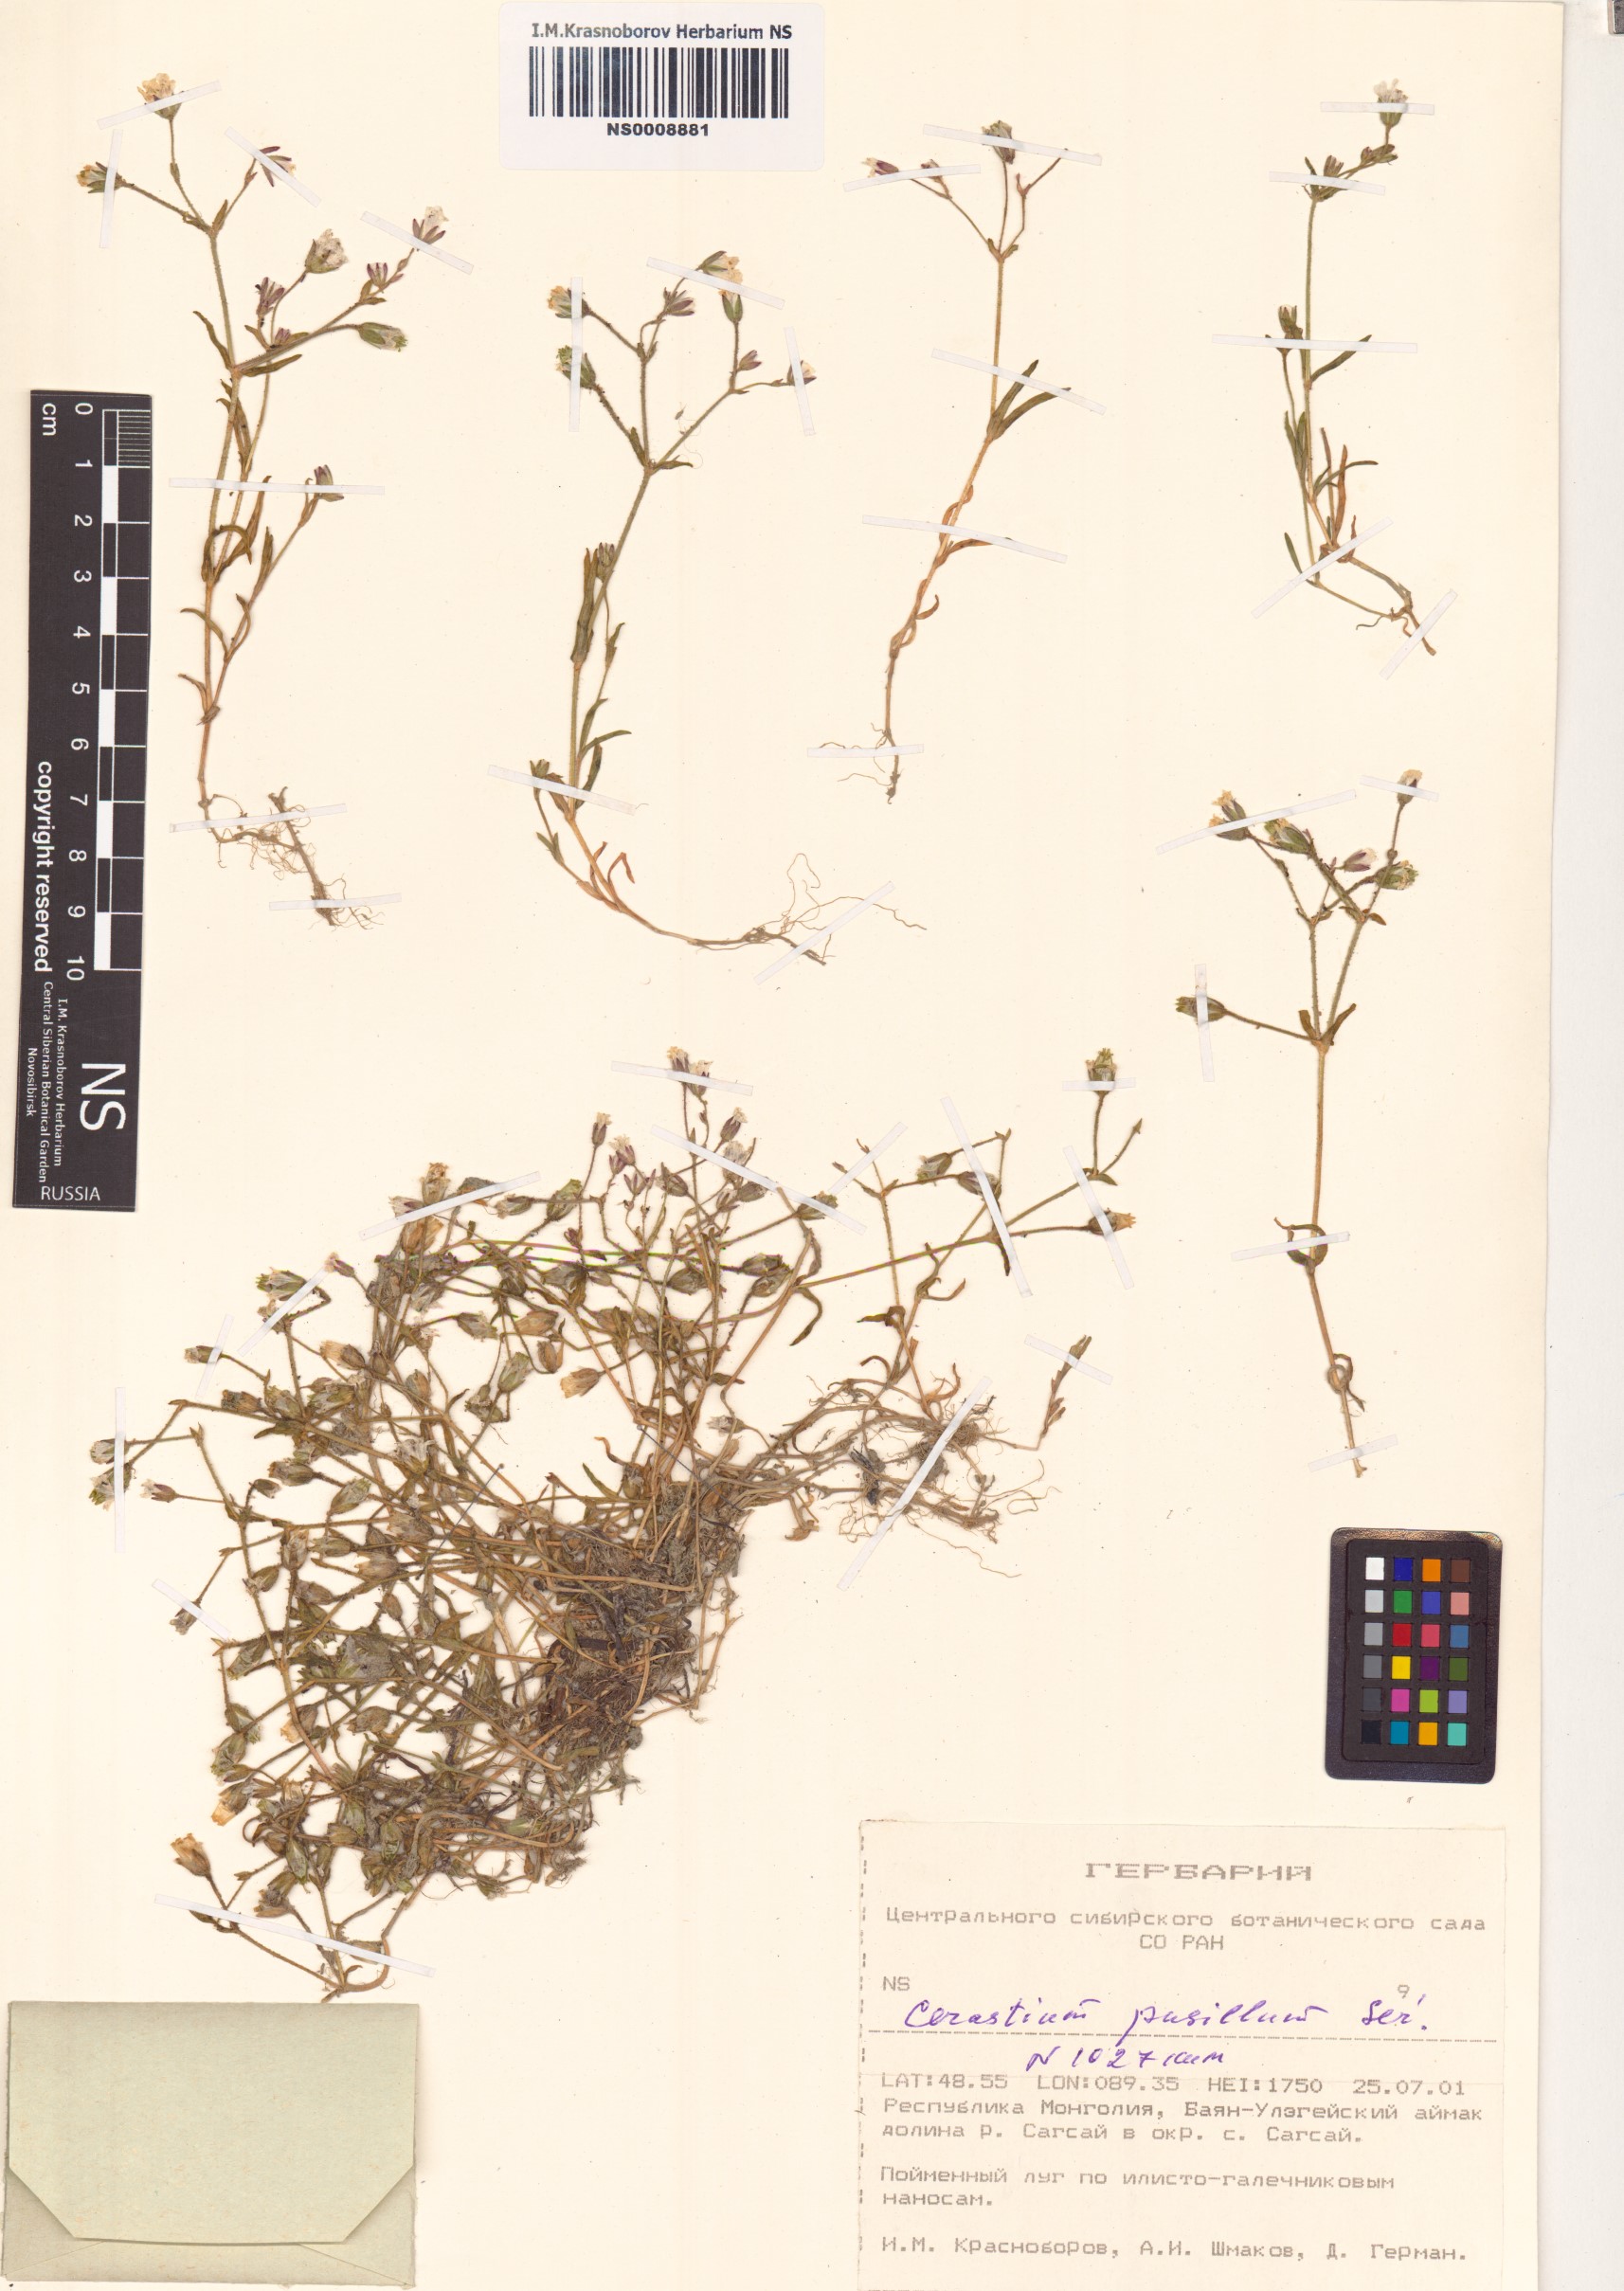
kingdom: Plantae
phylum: Tracheophyta
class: Magnoliopsida
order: Caryophyllales
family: Caryophyllaceae
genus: Cerastium
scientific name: Cerastium pusillum
